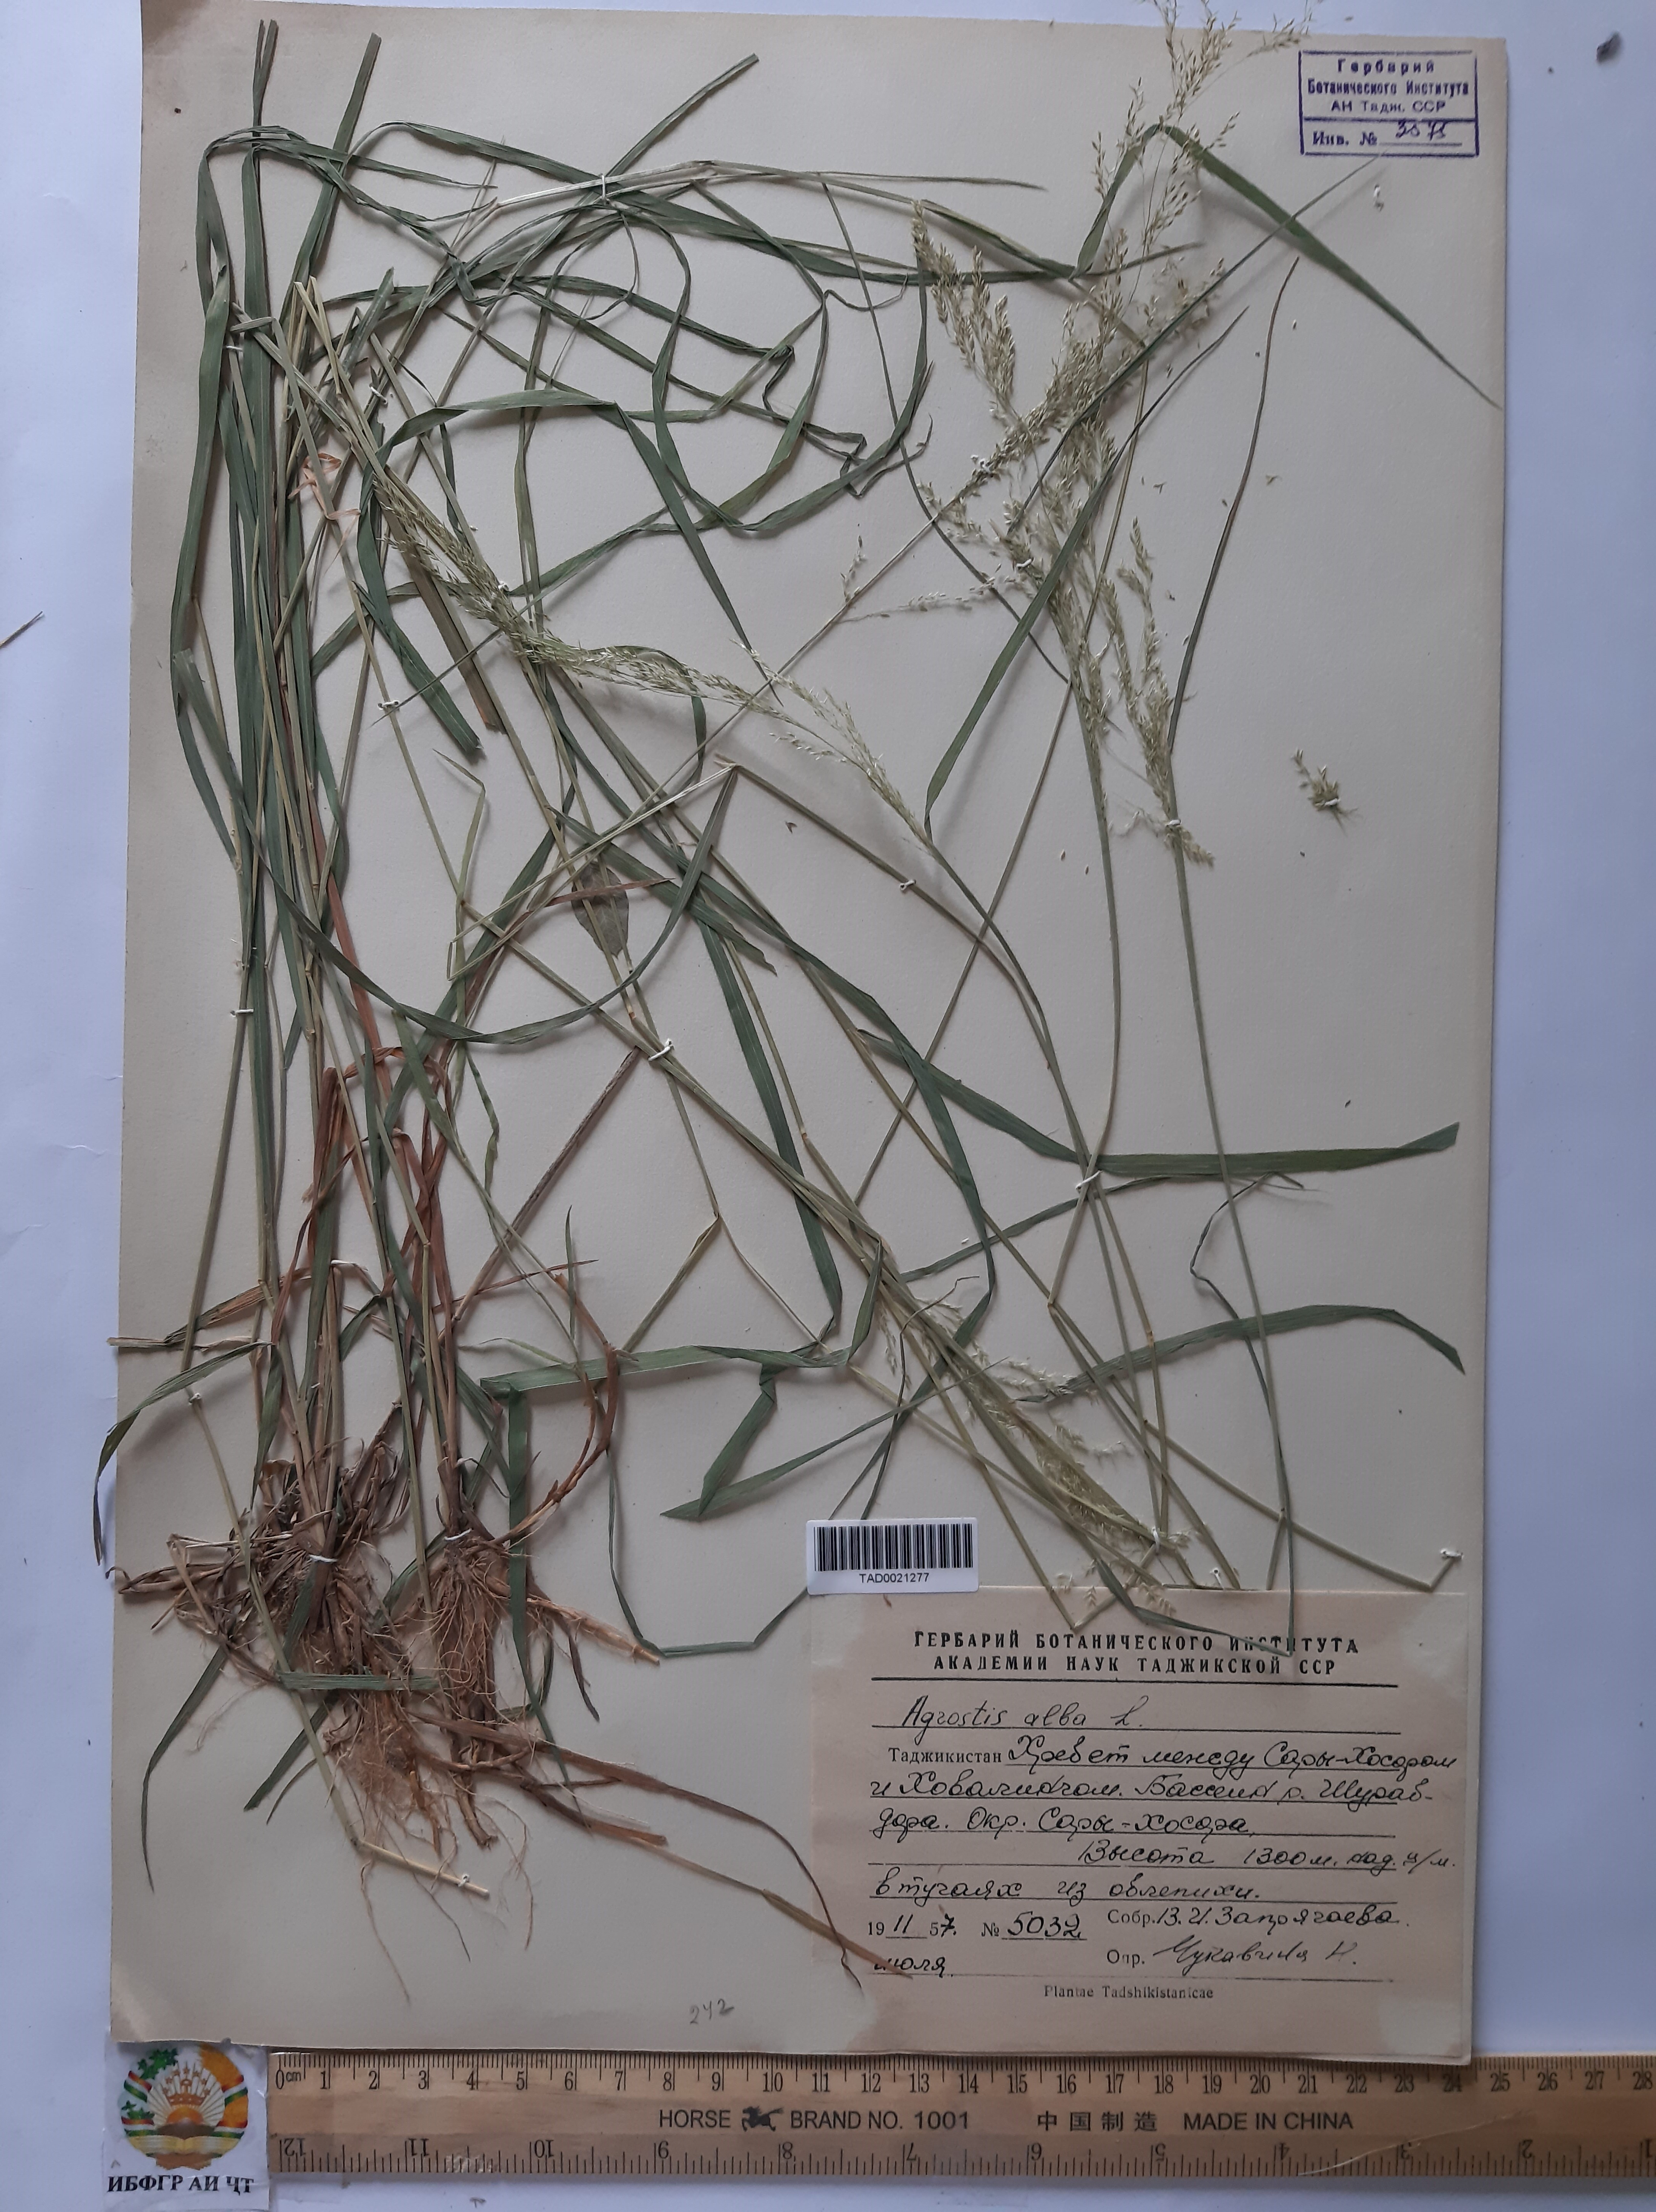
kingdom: Plantae
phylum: Tracheophyta
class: Liliopsida
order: Poales
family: Poaceae
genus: Poa
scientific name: Poa nemoralis
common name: Wood bluegrass
